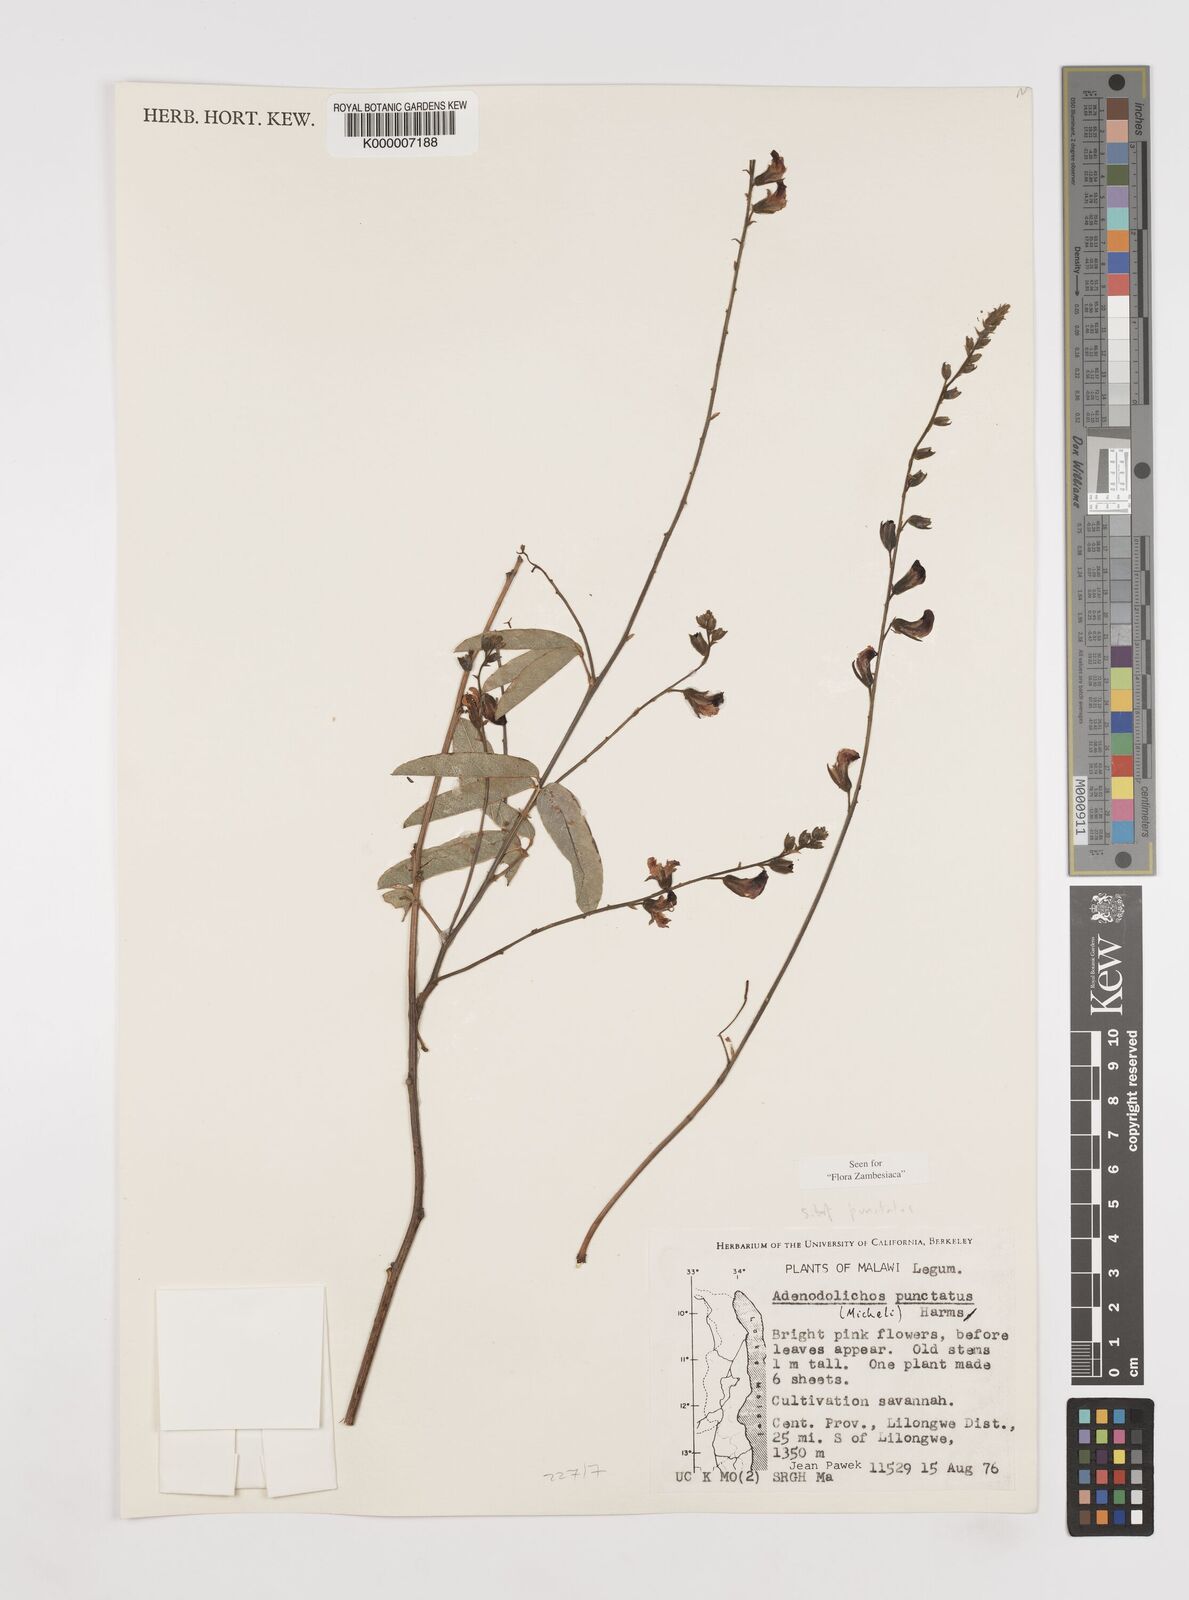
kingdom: Plantae
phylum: Tracheophyta
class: Magnoliopsida
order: Fabales
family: Fabaceae
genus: Adenodolichos
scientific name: Adenodolichos punctatus
